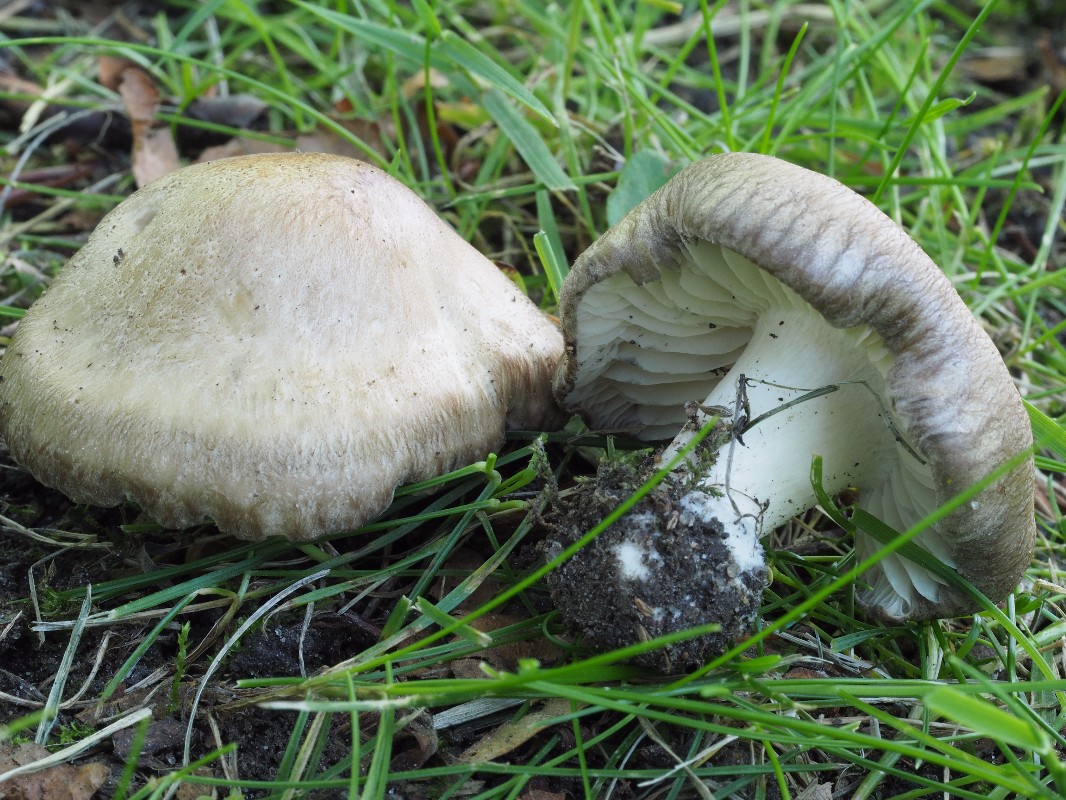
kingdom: Fungi
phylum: Basidiomycota
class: Agaricomycetes
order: Agaricales
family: Lyophyllaceae
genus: Lyophyllum
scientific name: Lyophyllum paelochroum
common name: blånende gråblad
